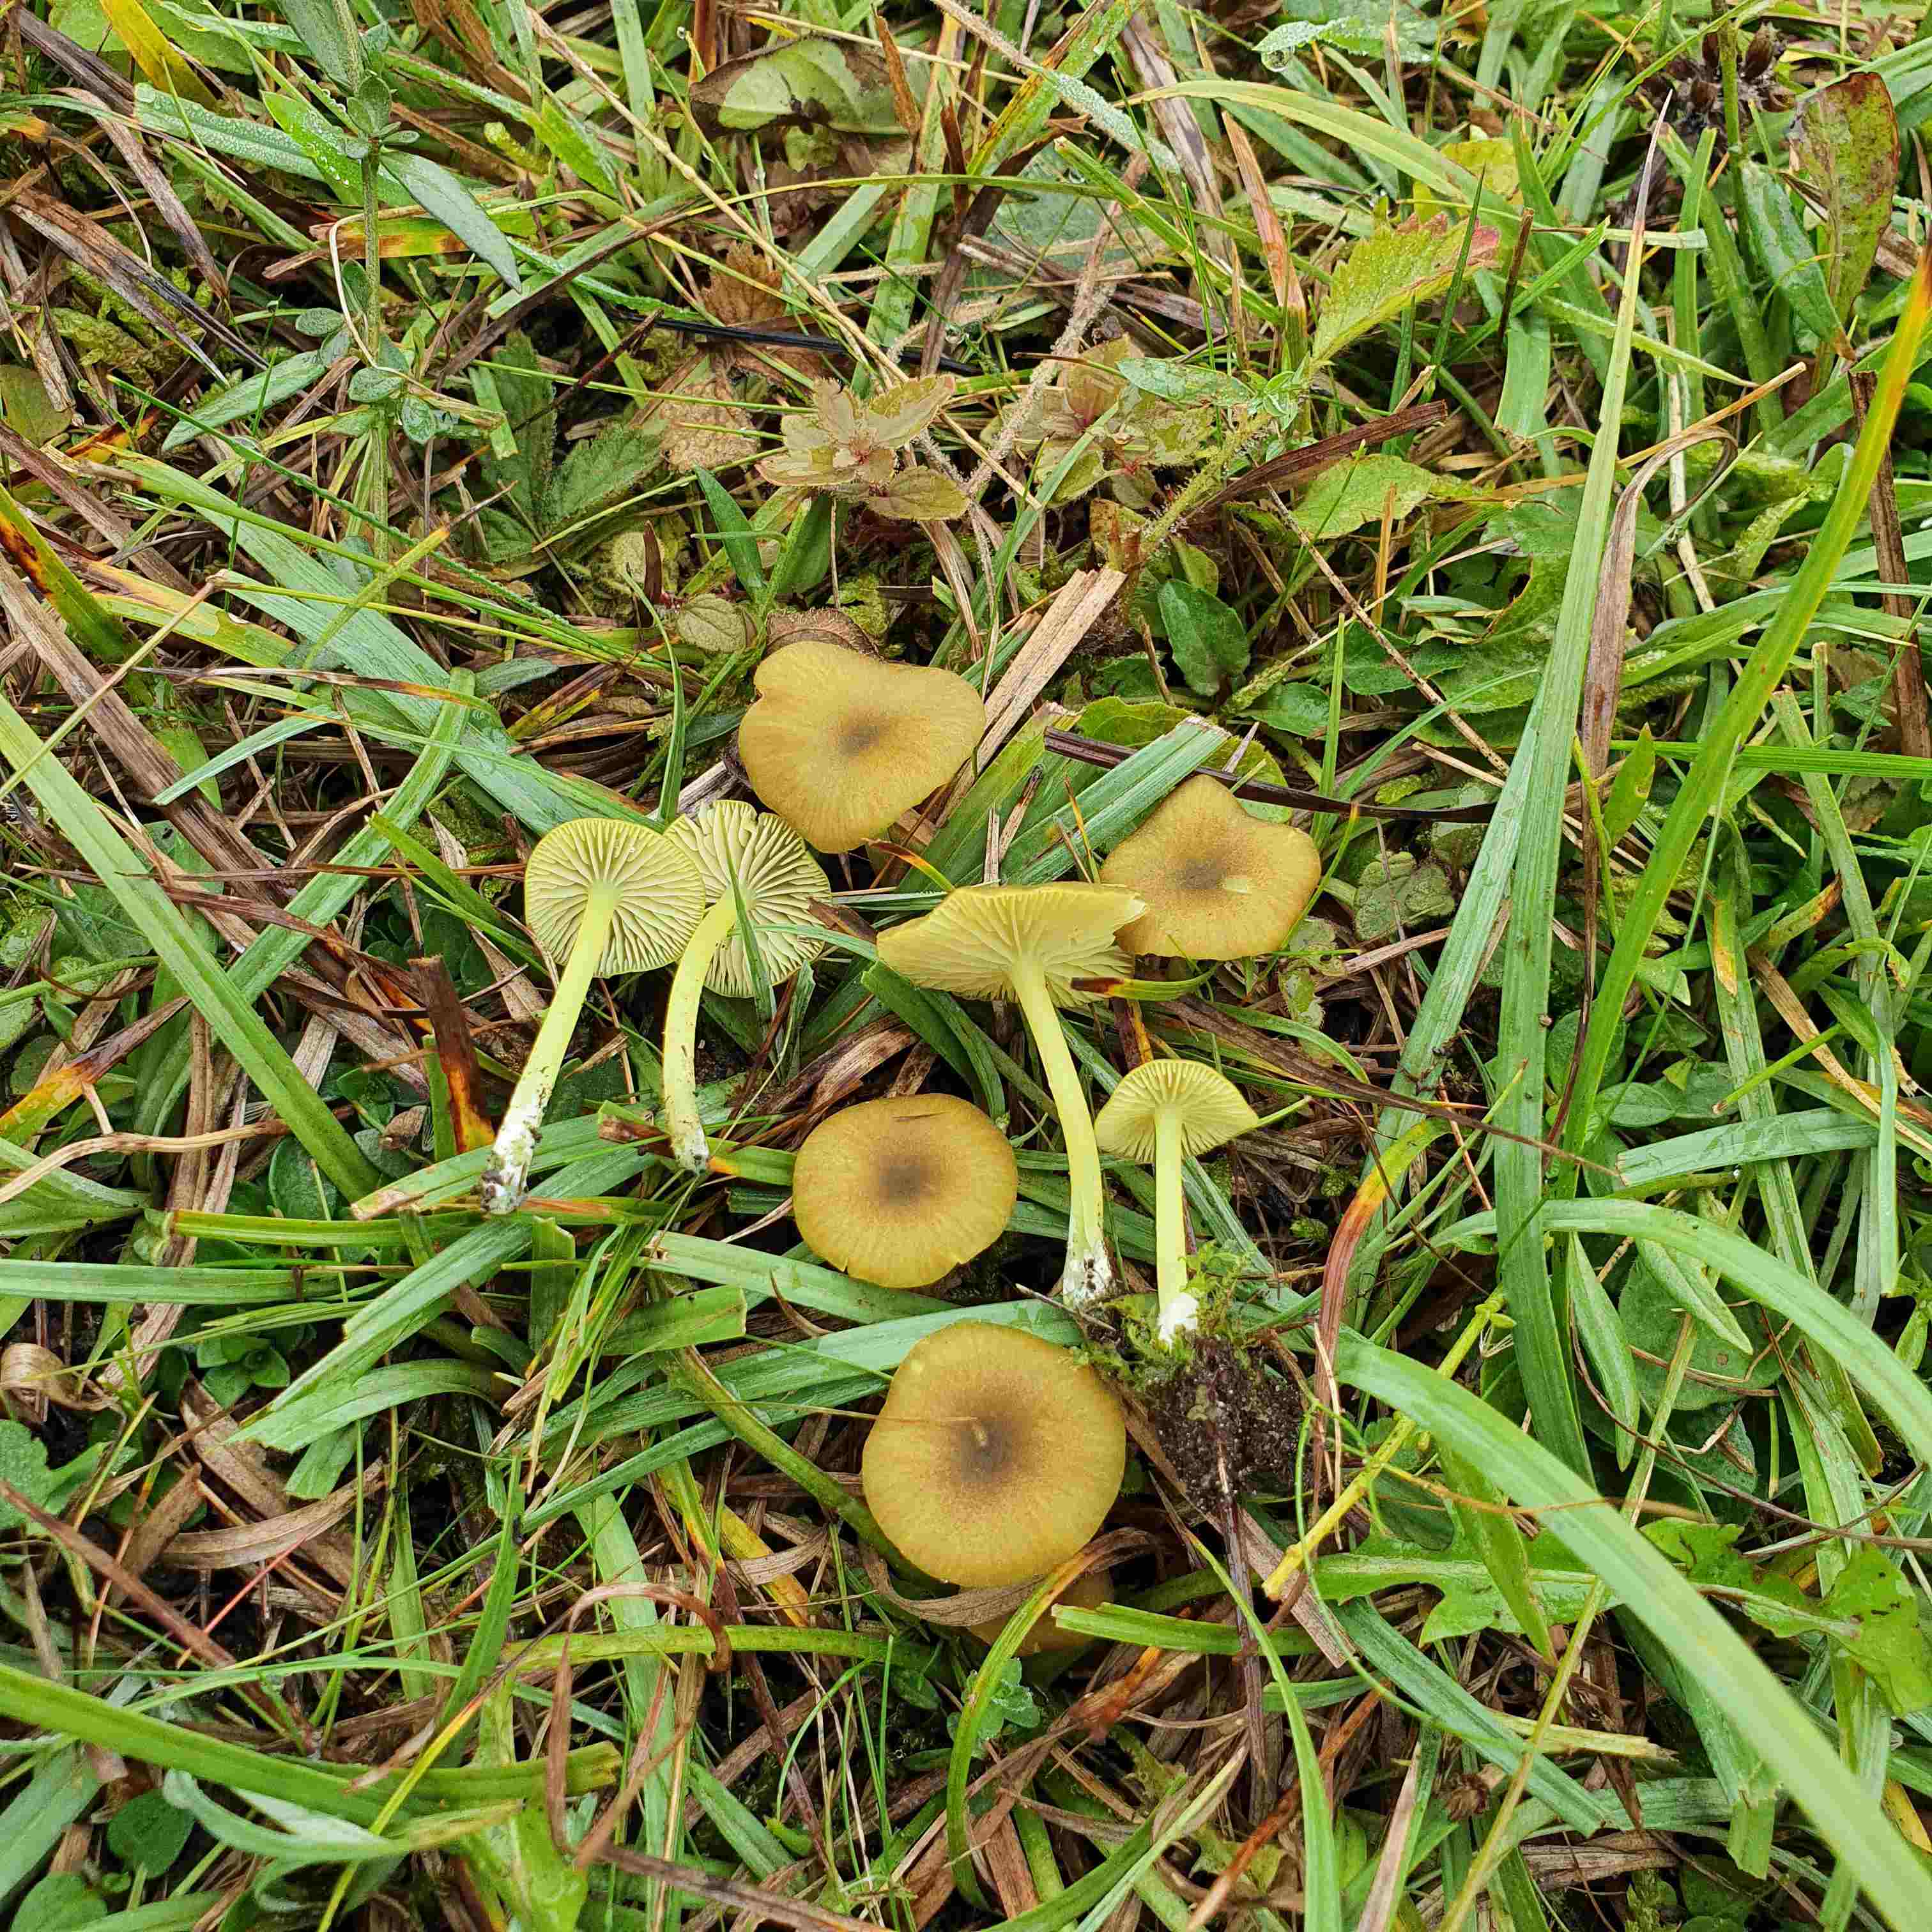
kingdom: Fungi
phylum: Basidiomycota
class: Agaricomycetes
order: Agaricales
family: Entolomataceae
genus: Entoloma
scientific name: Entoloma incanum
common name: grøngul rødblad
